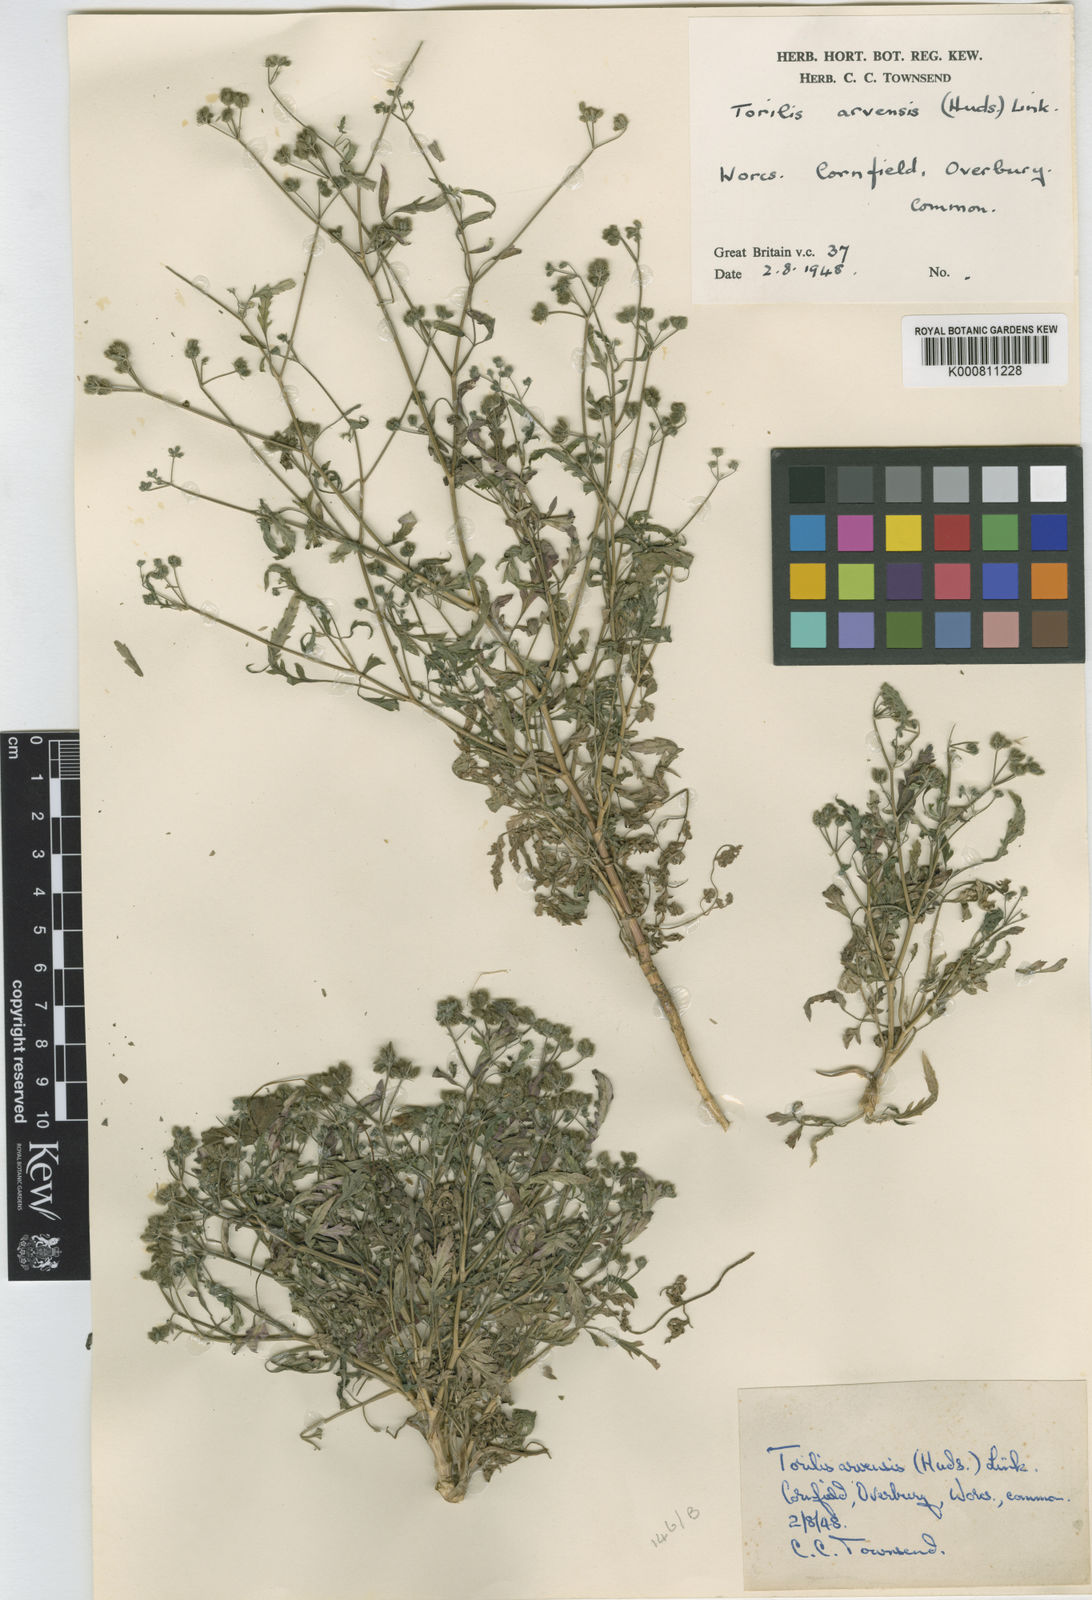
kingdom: Plantae
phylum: Tracheophyta
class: Magnoliopsida
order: Apiales
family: Apiaceae
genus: Torilis
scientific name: Torilis arvensis
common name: Spreading hedge-parsley
